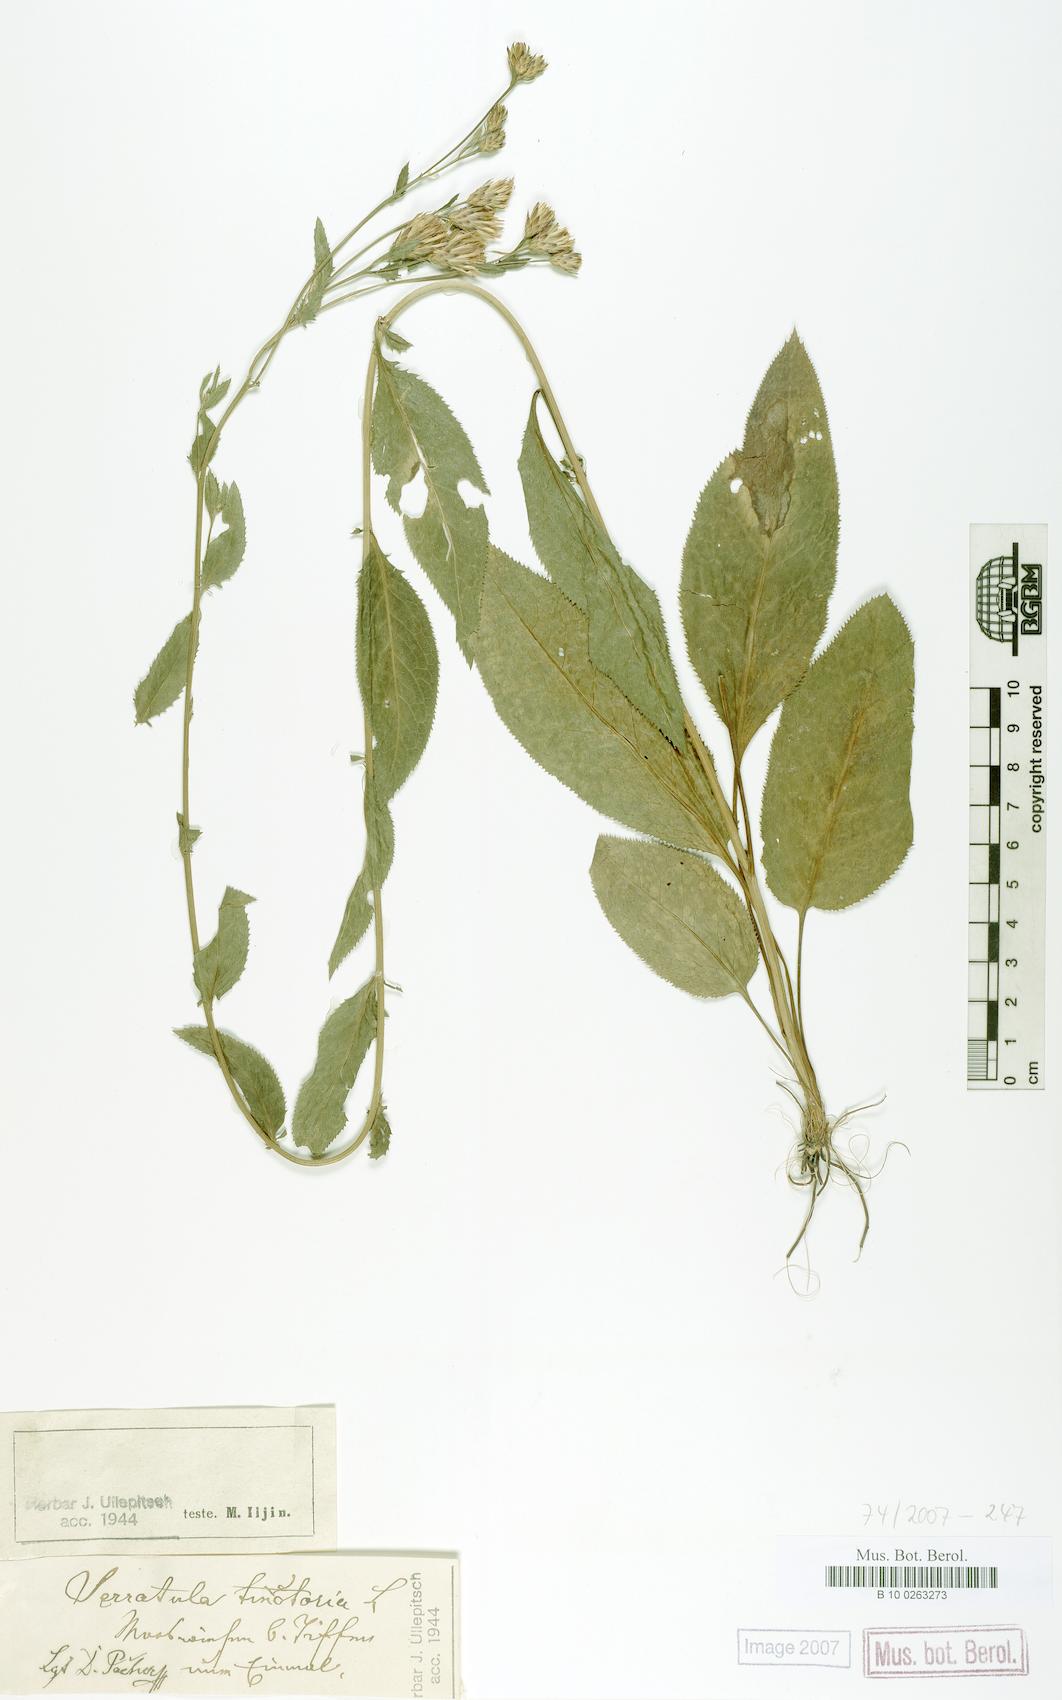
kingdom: Plantae
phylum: Tracheophyta
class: Magnoliopsida
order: Asterales
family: Asteraceae
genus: Serratula
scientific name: Serratula tinctoria
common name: Saw-wort
